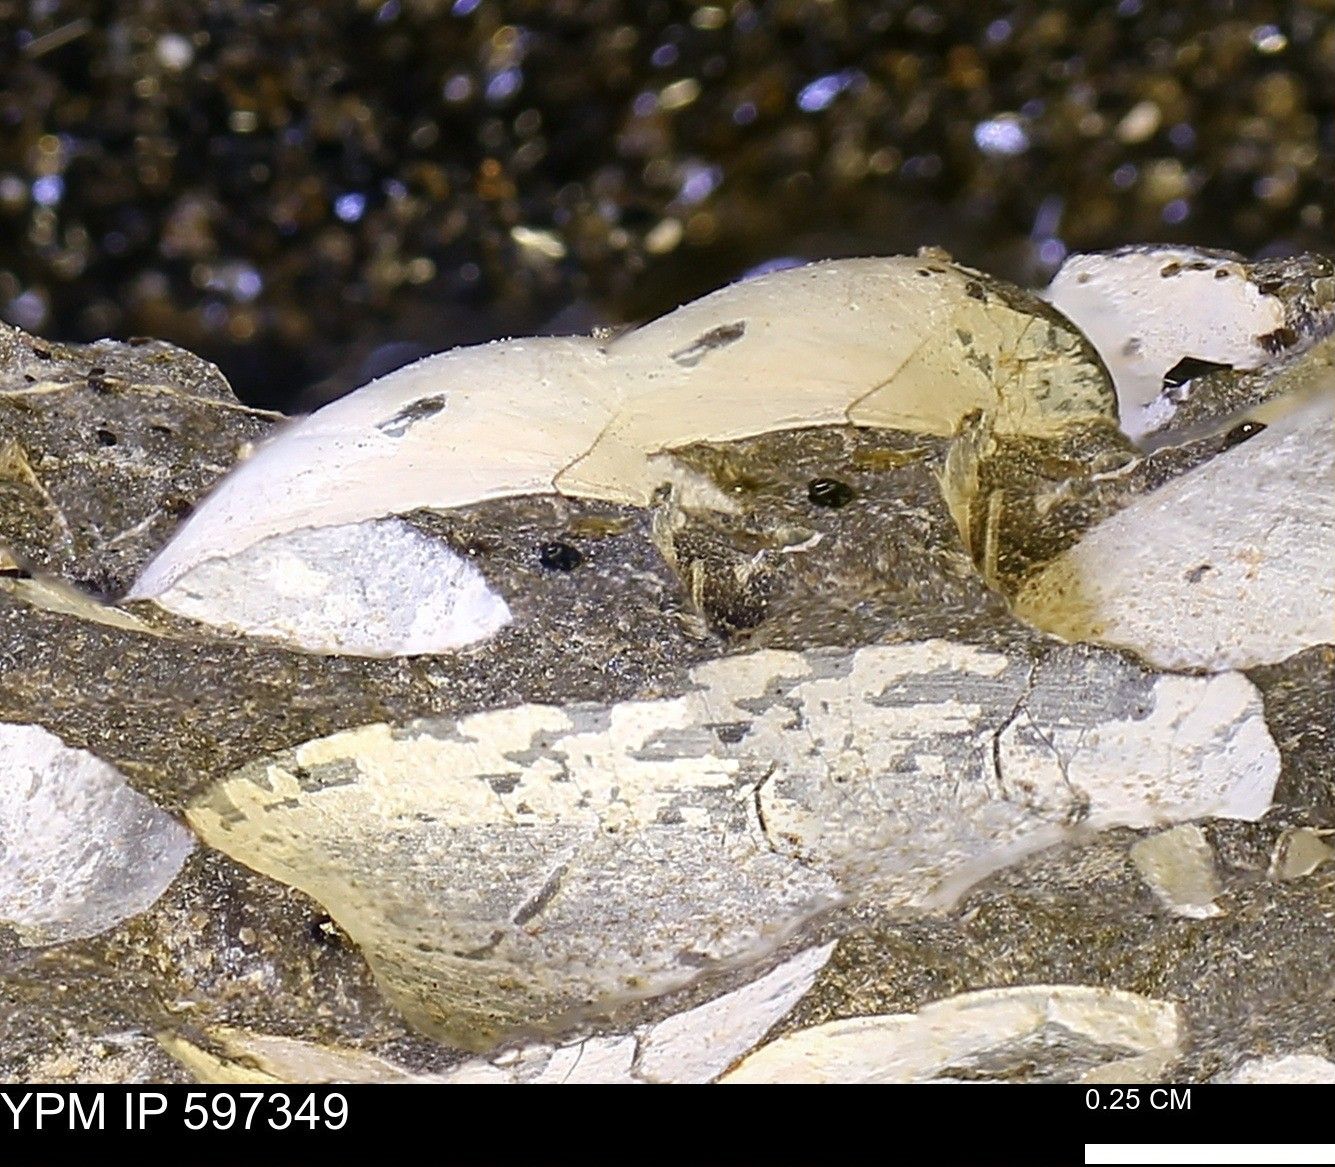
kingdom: Animalia
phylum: Mollusca
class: Bivalvia
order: Arcida
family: Limopsidae
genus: Limopsis
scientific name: Limopsis
